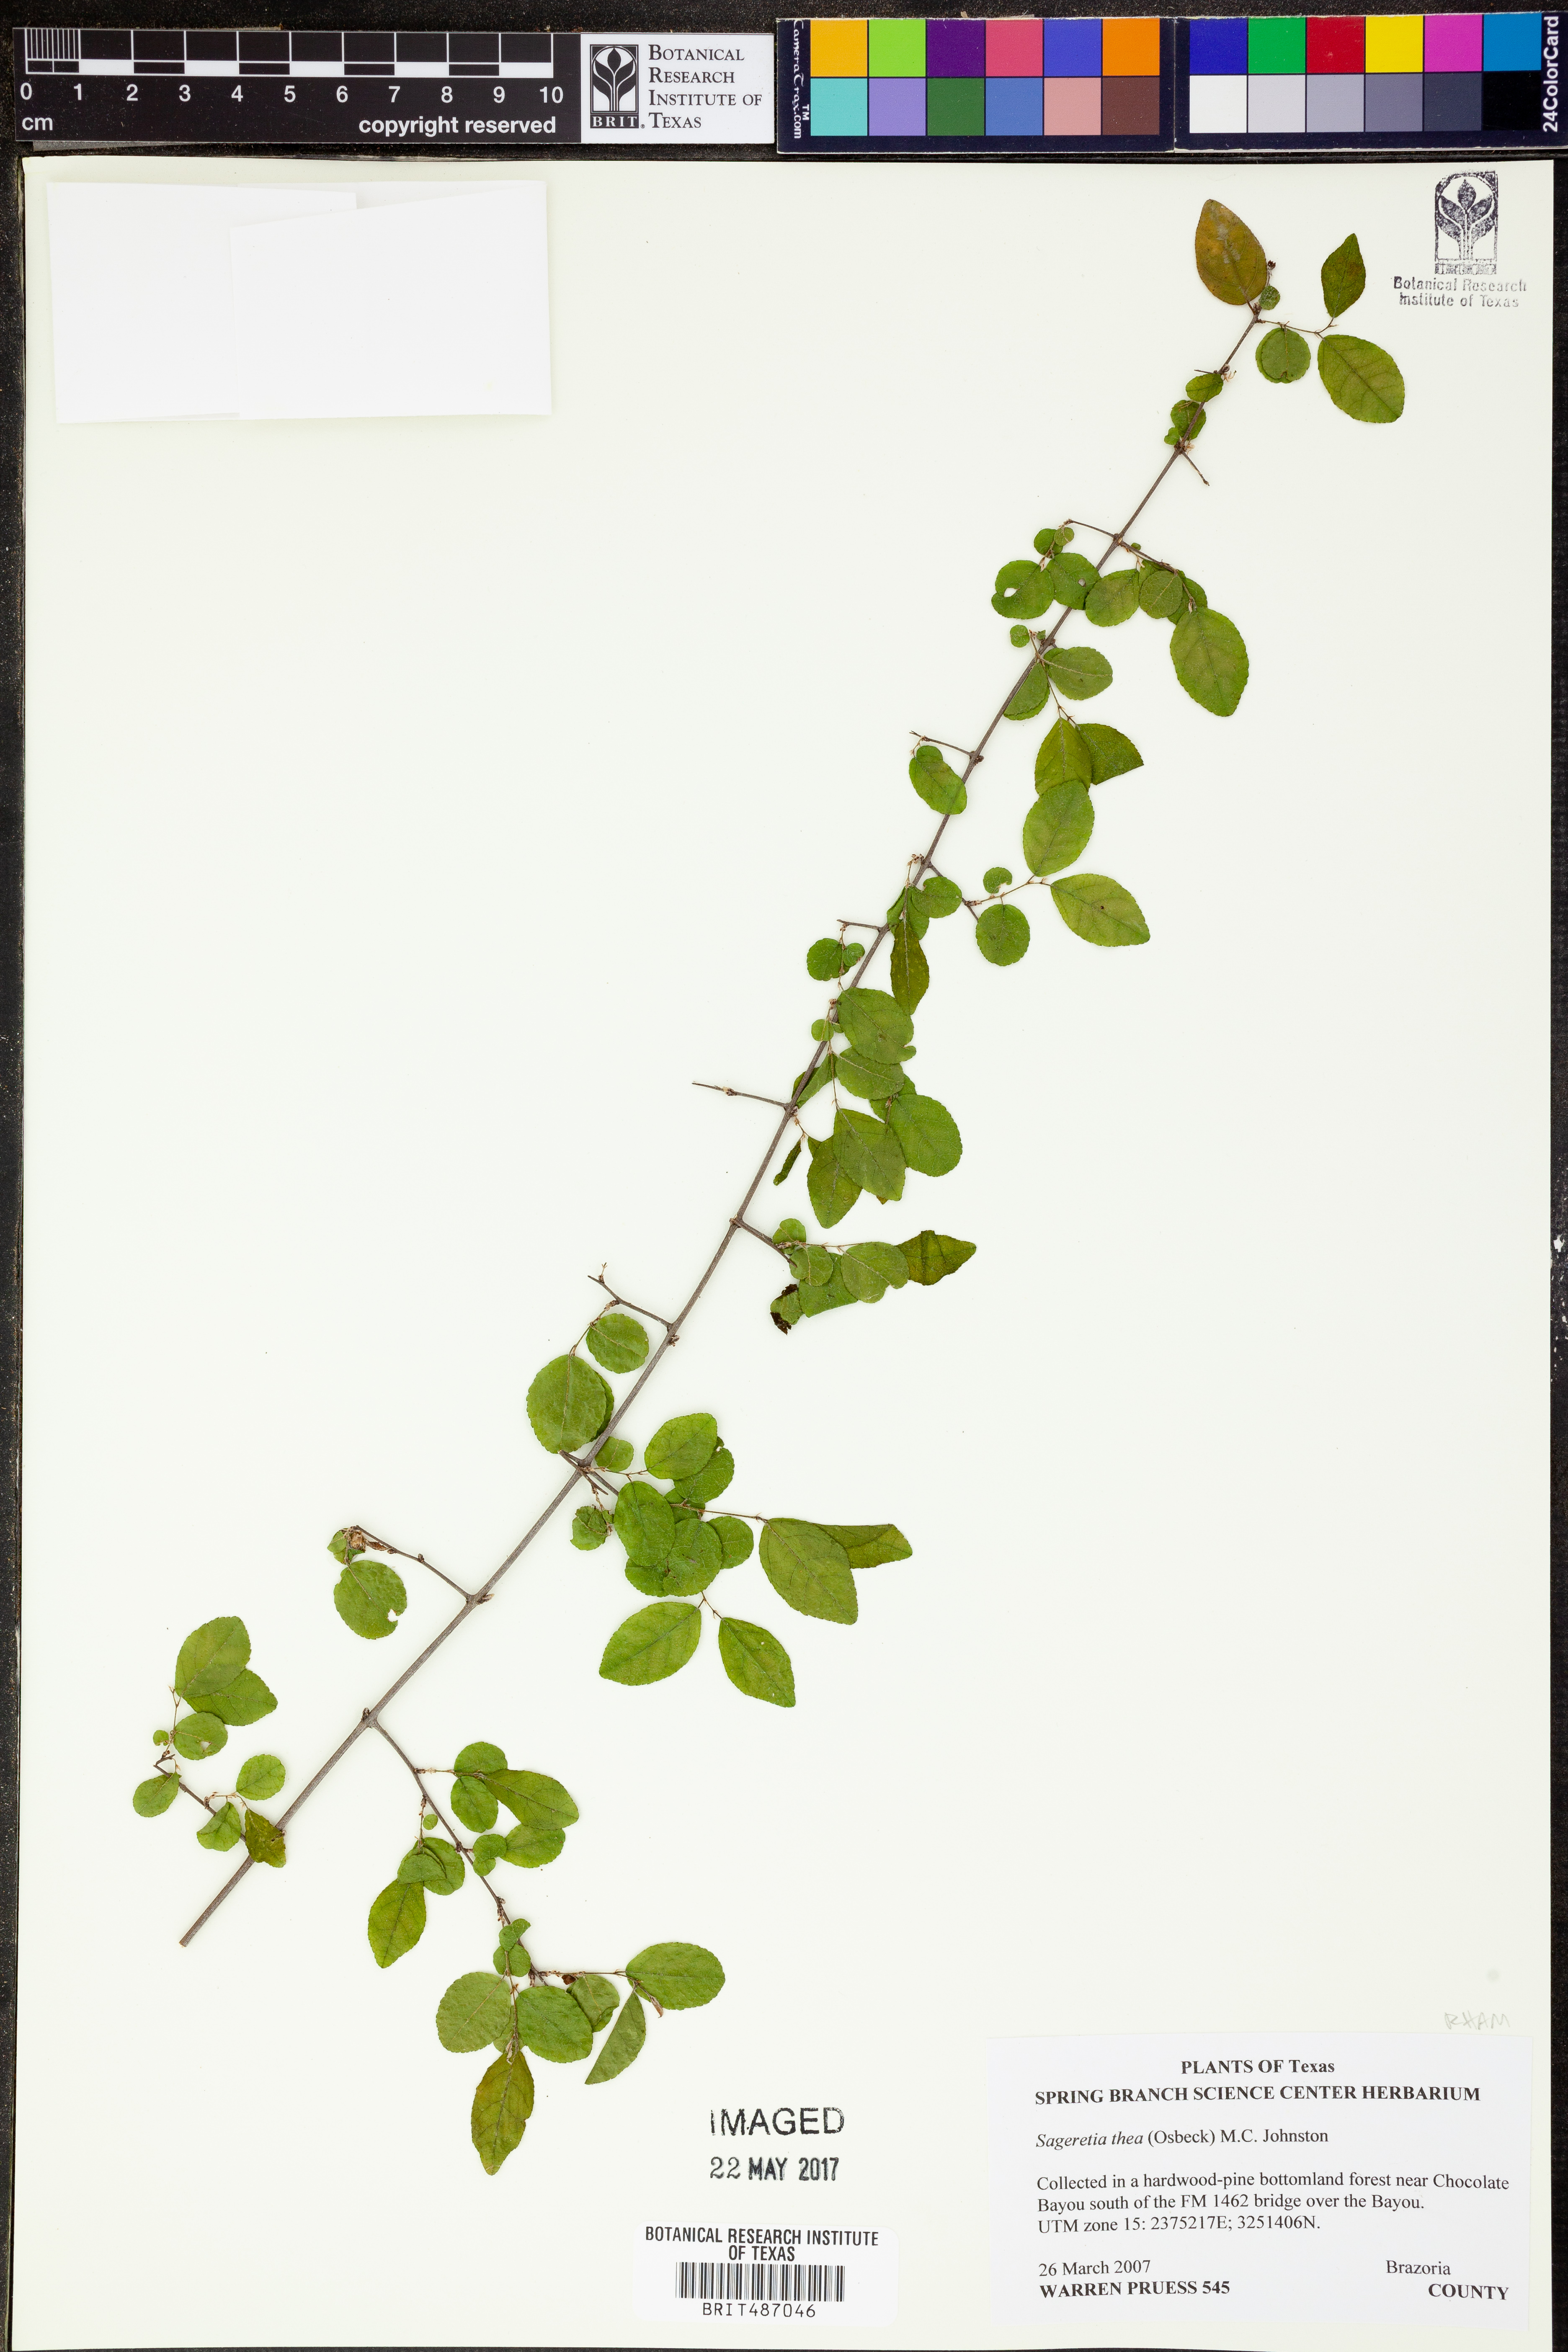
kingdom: Plantae
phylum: Tracheophyta
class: Magnoliopsida
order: Rosales
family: Rhamnaceae
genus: Sageretia
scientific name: Sageretia thea
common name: Pauper's-tea
